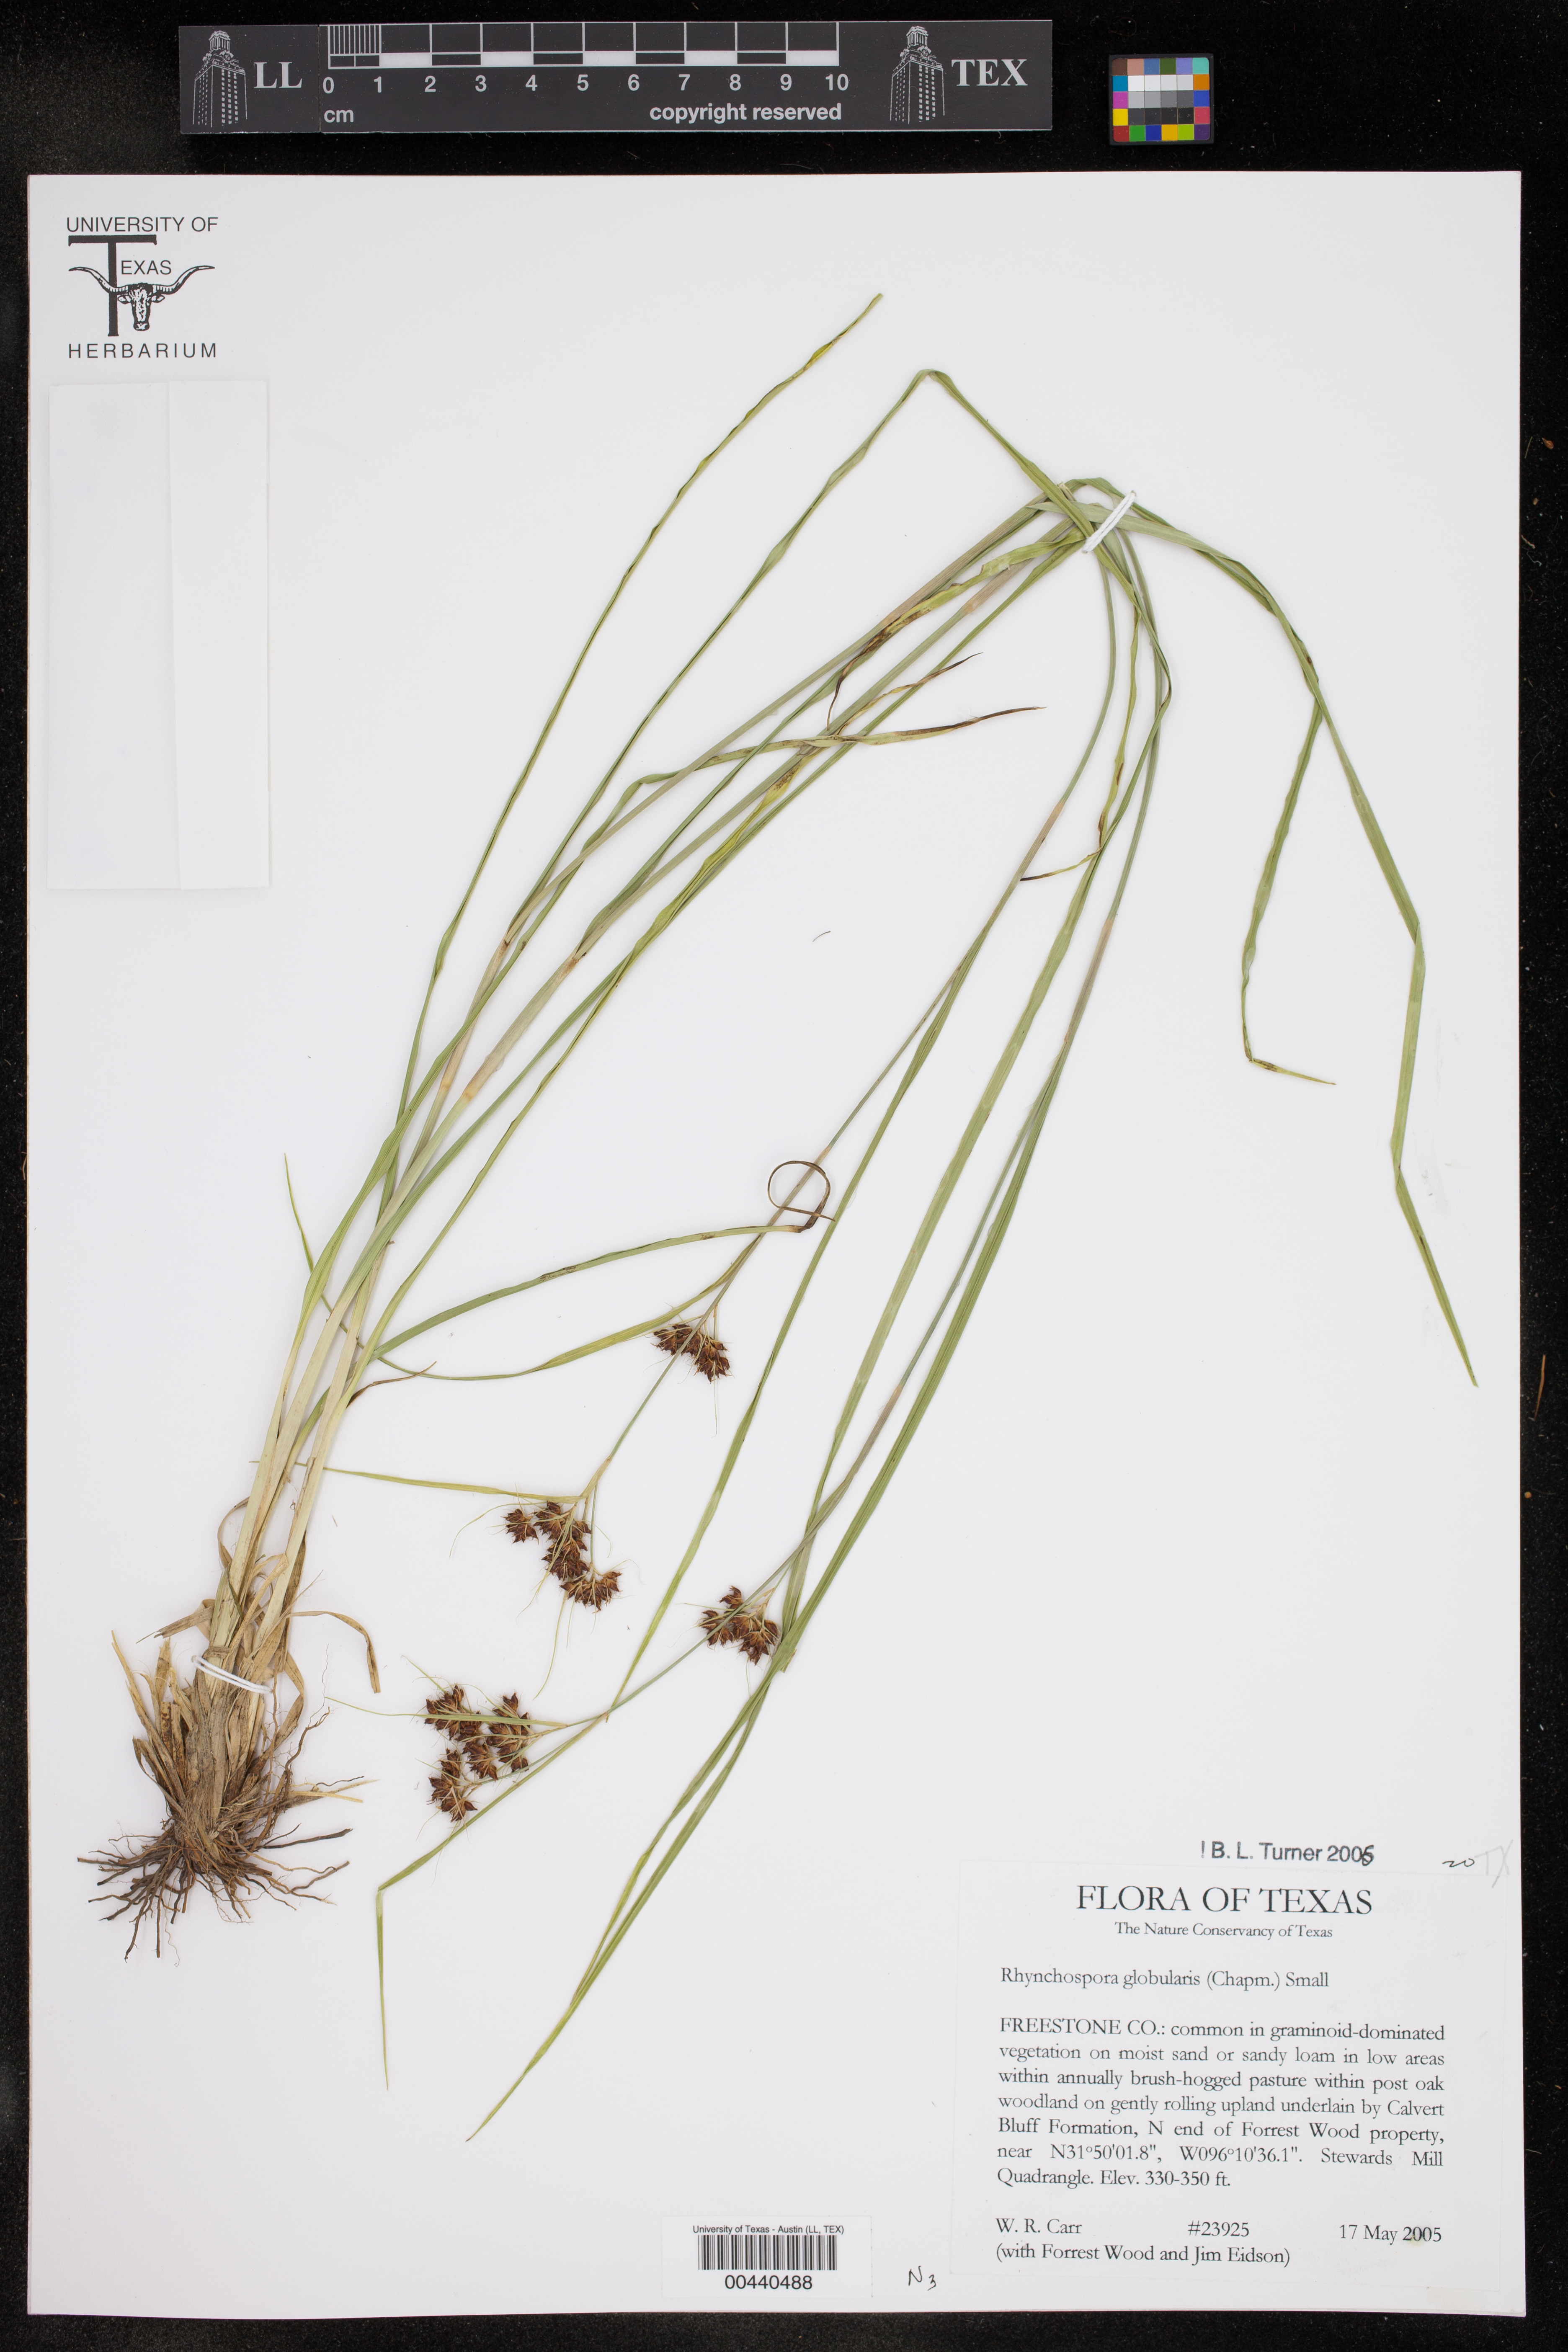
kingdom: Plantae
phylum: Tracheophyta
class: Liliopsida
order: Poales
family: Cyperaceae
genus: Rhynchospora
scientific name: Rhynchospora globularis
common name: Globe beaksedge
